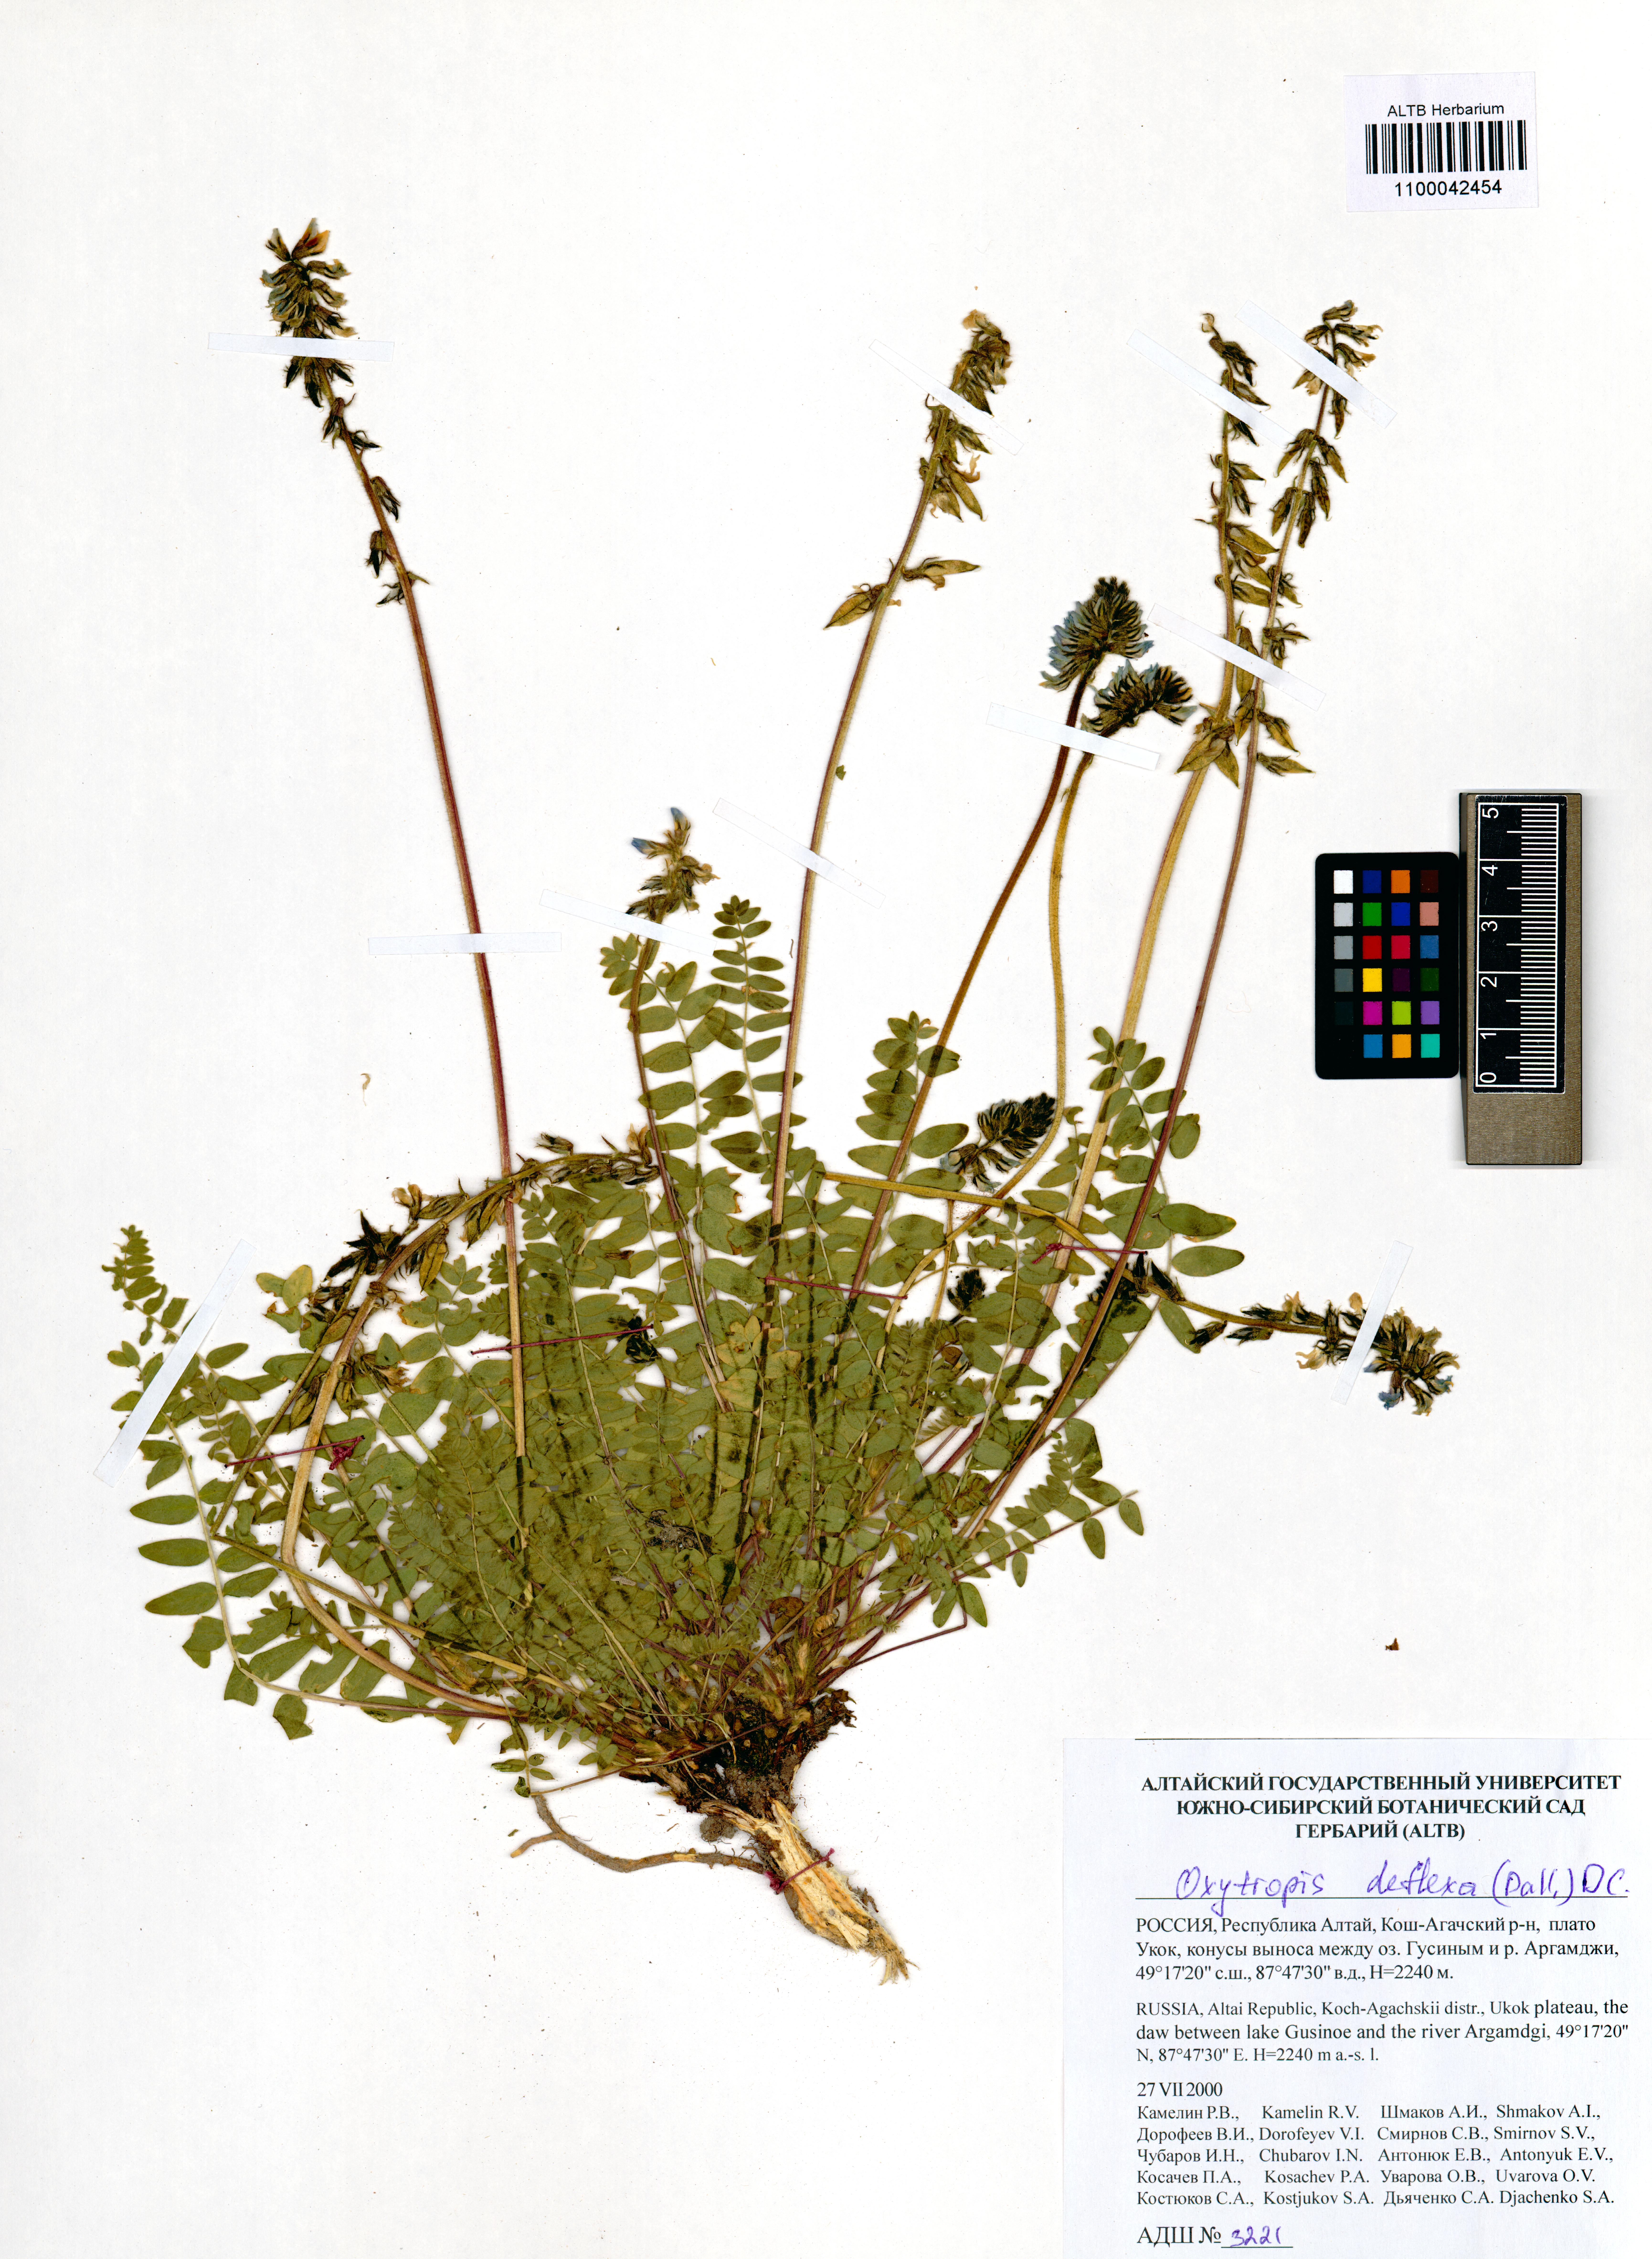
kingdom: Plantae
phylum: Tracheophyta
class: Magnoliopsida
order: Fabales
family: Fabaceae
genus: Oxytropis
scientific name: Oxytropis deflexa
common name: Stemmed oxytrope
